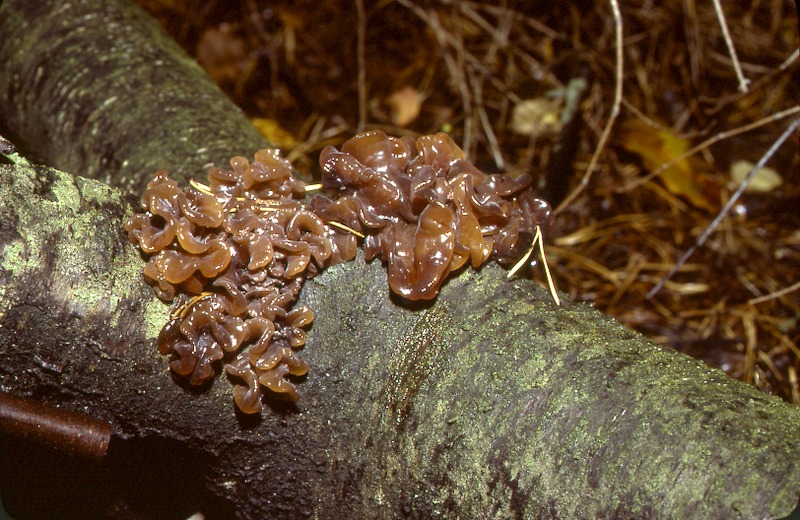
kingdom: Plantae
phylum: Tracheophyta
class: Magnoliopsida
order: Rosales
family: Rosaceae
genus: Prunus
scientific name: Prunus serotina
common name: Black cherry
